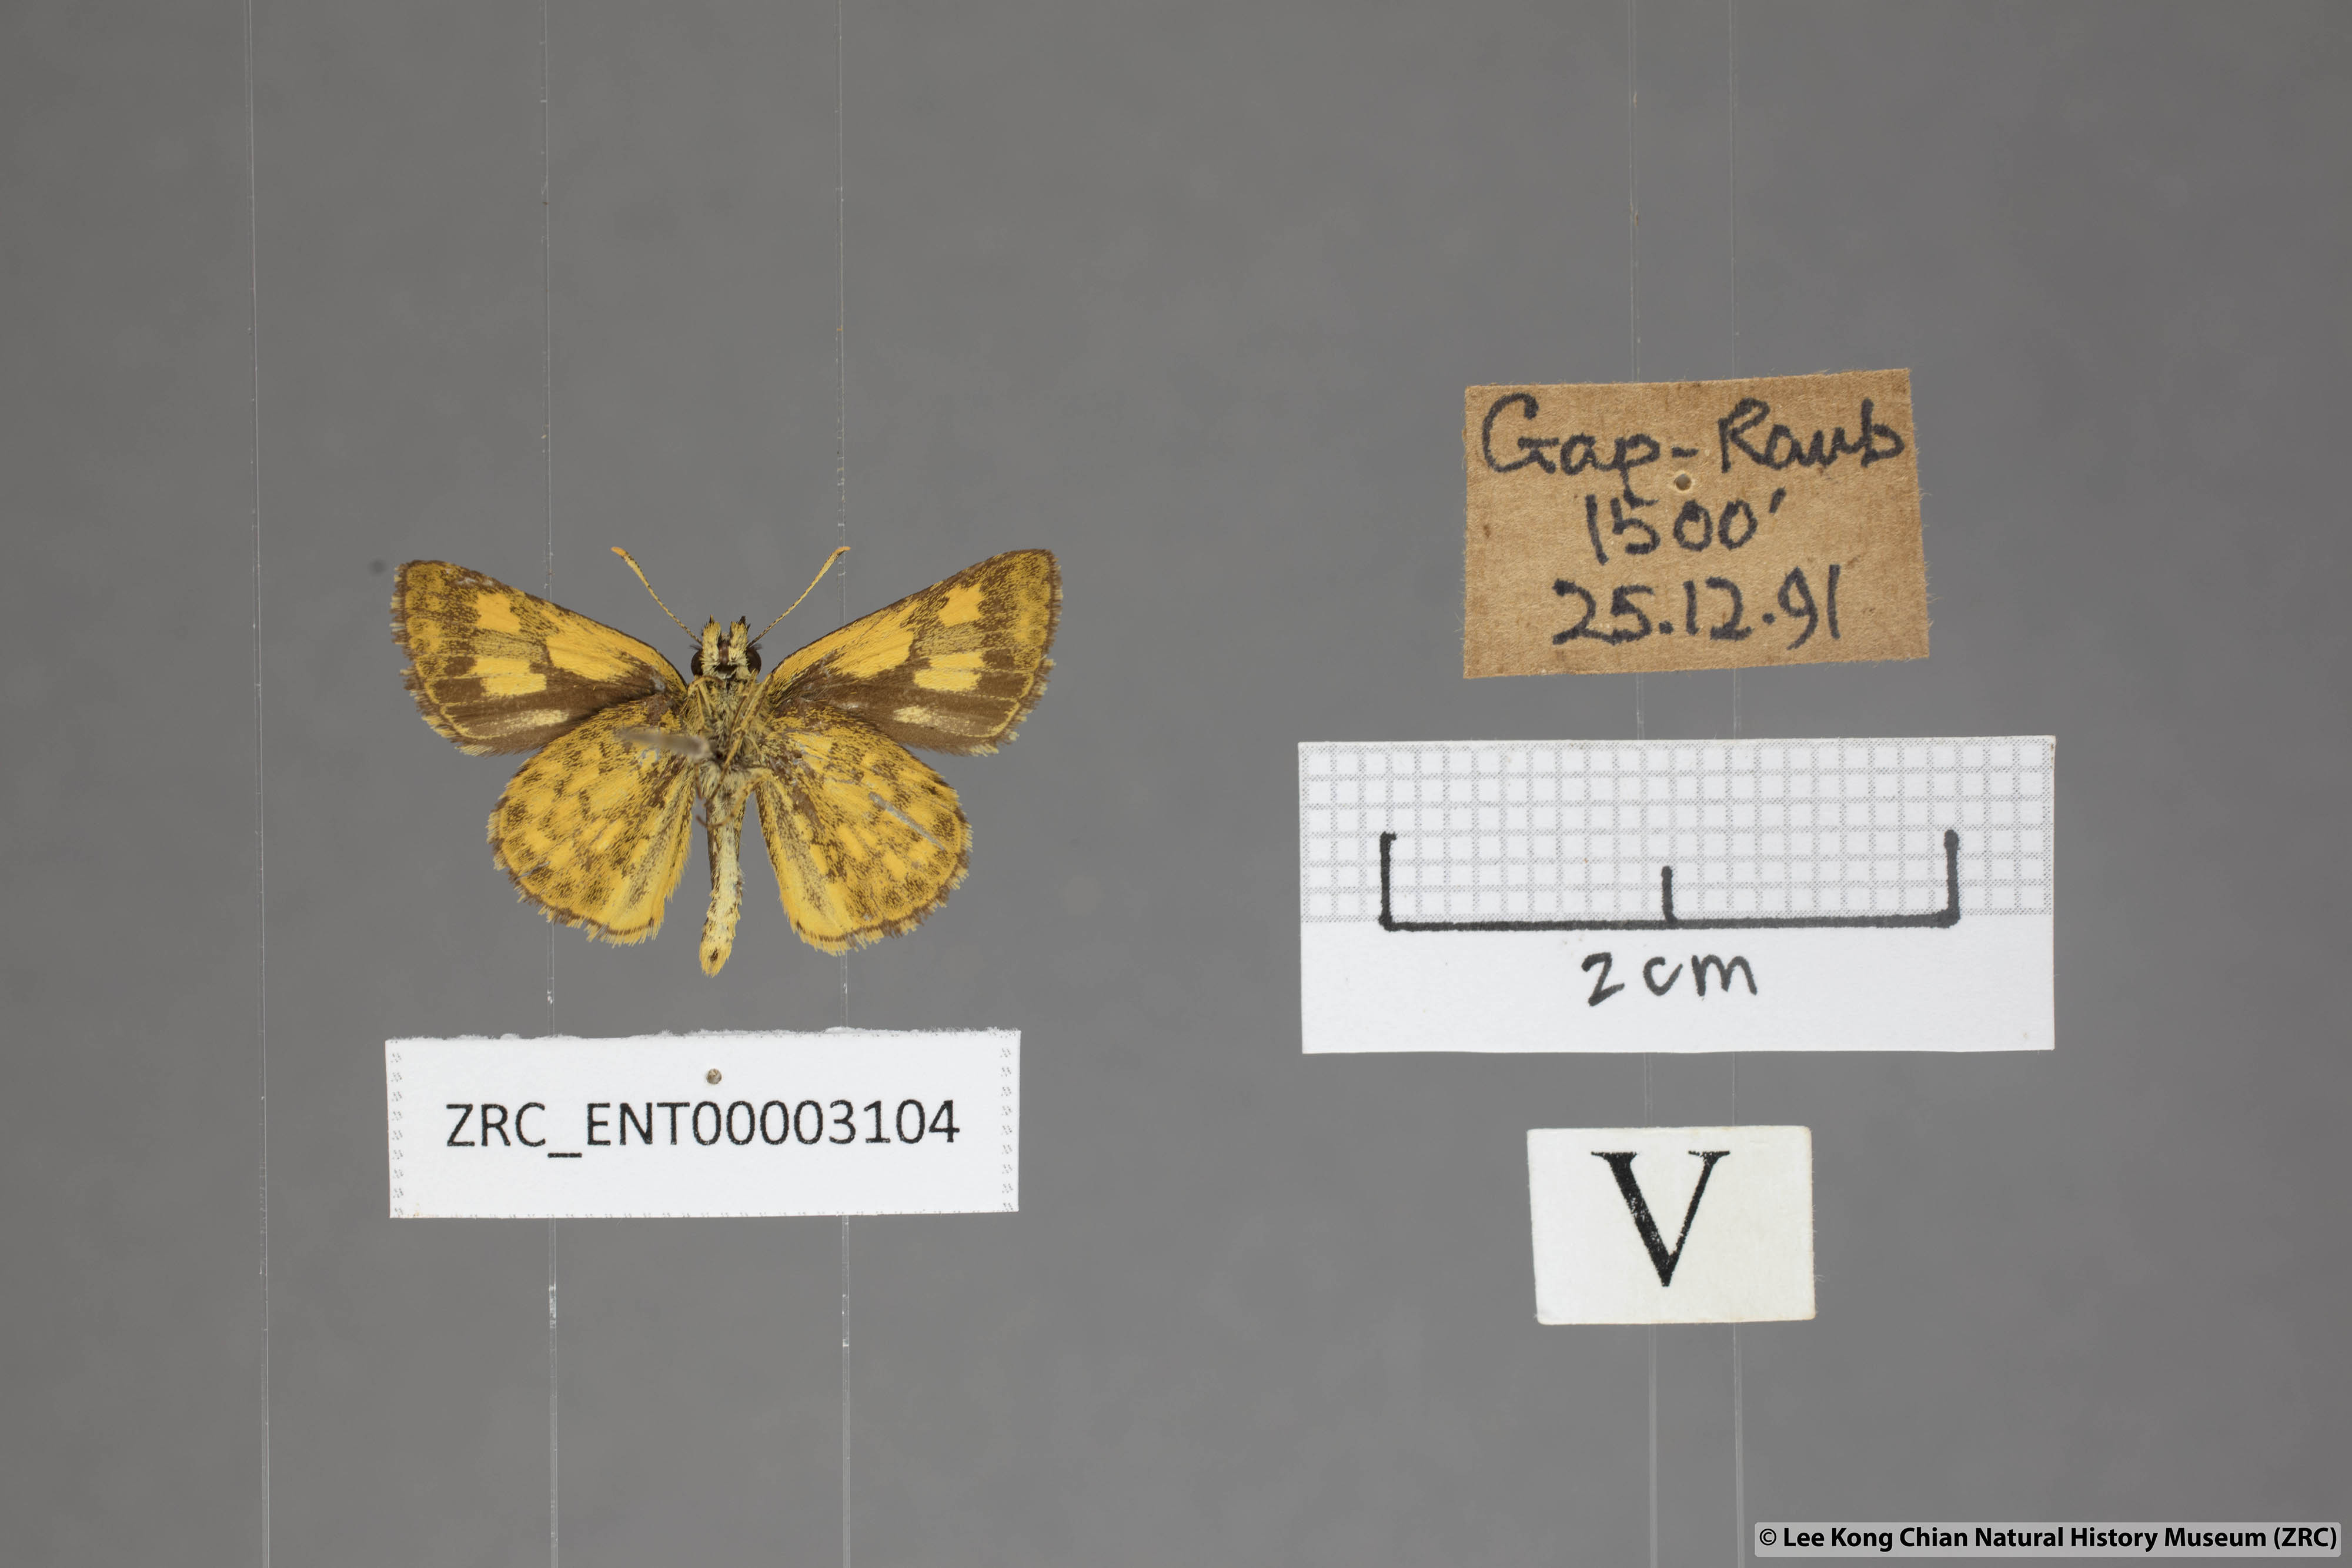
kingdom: Animalia
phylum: Arthropoda
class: Insecta
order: Lepidoptera
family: Hesperiidae
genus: Ampittia
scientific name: Ampittia dioscorides
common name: Common bush hopper
